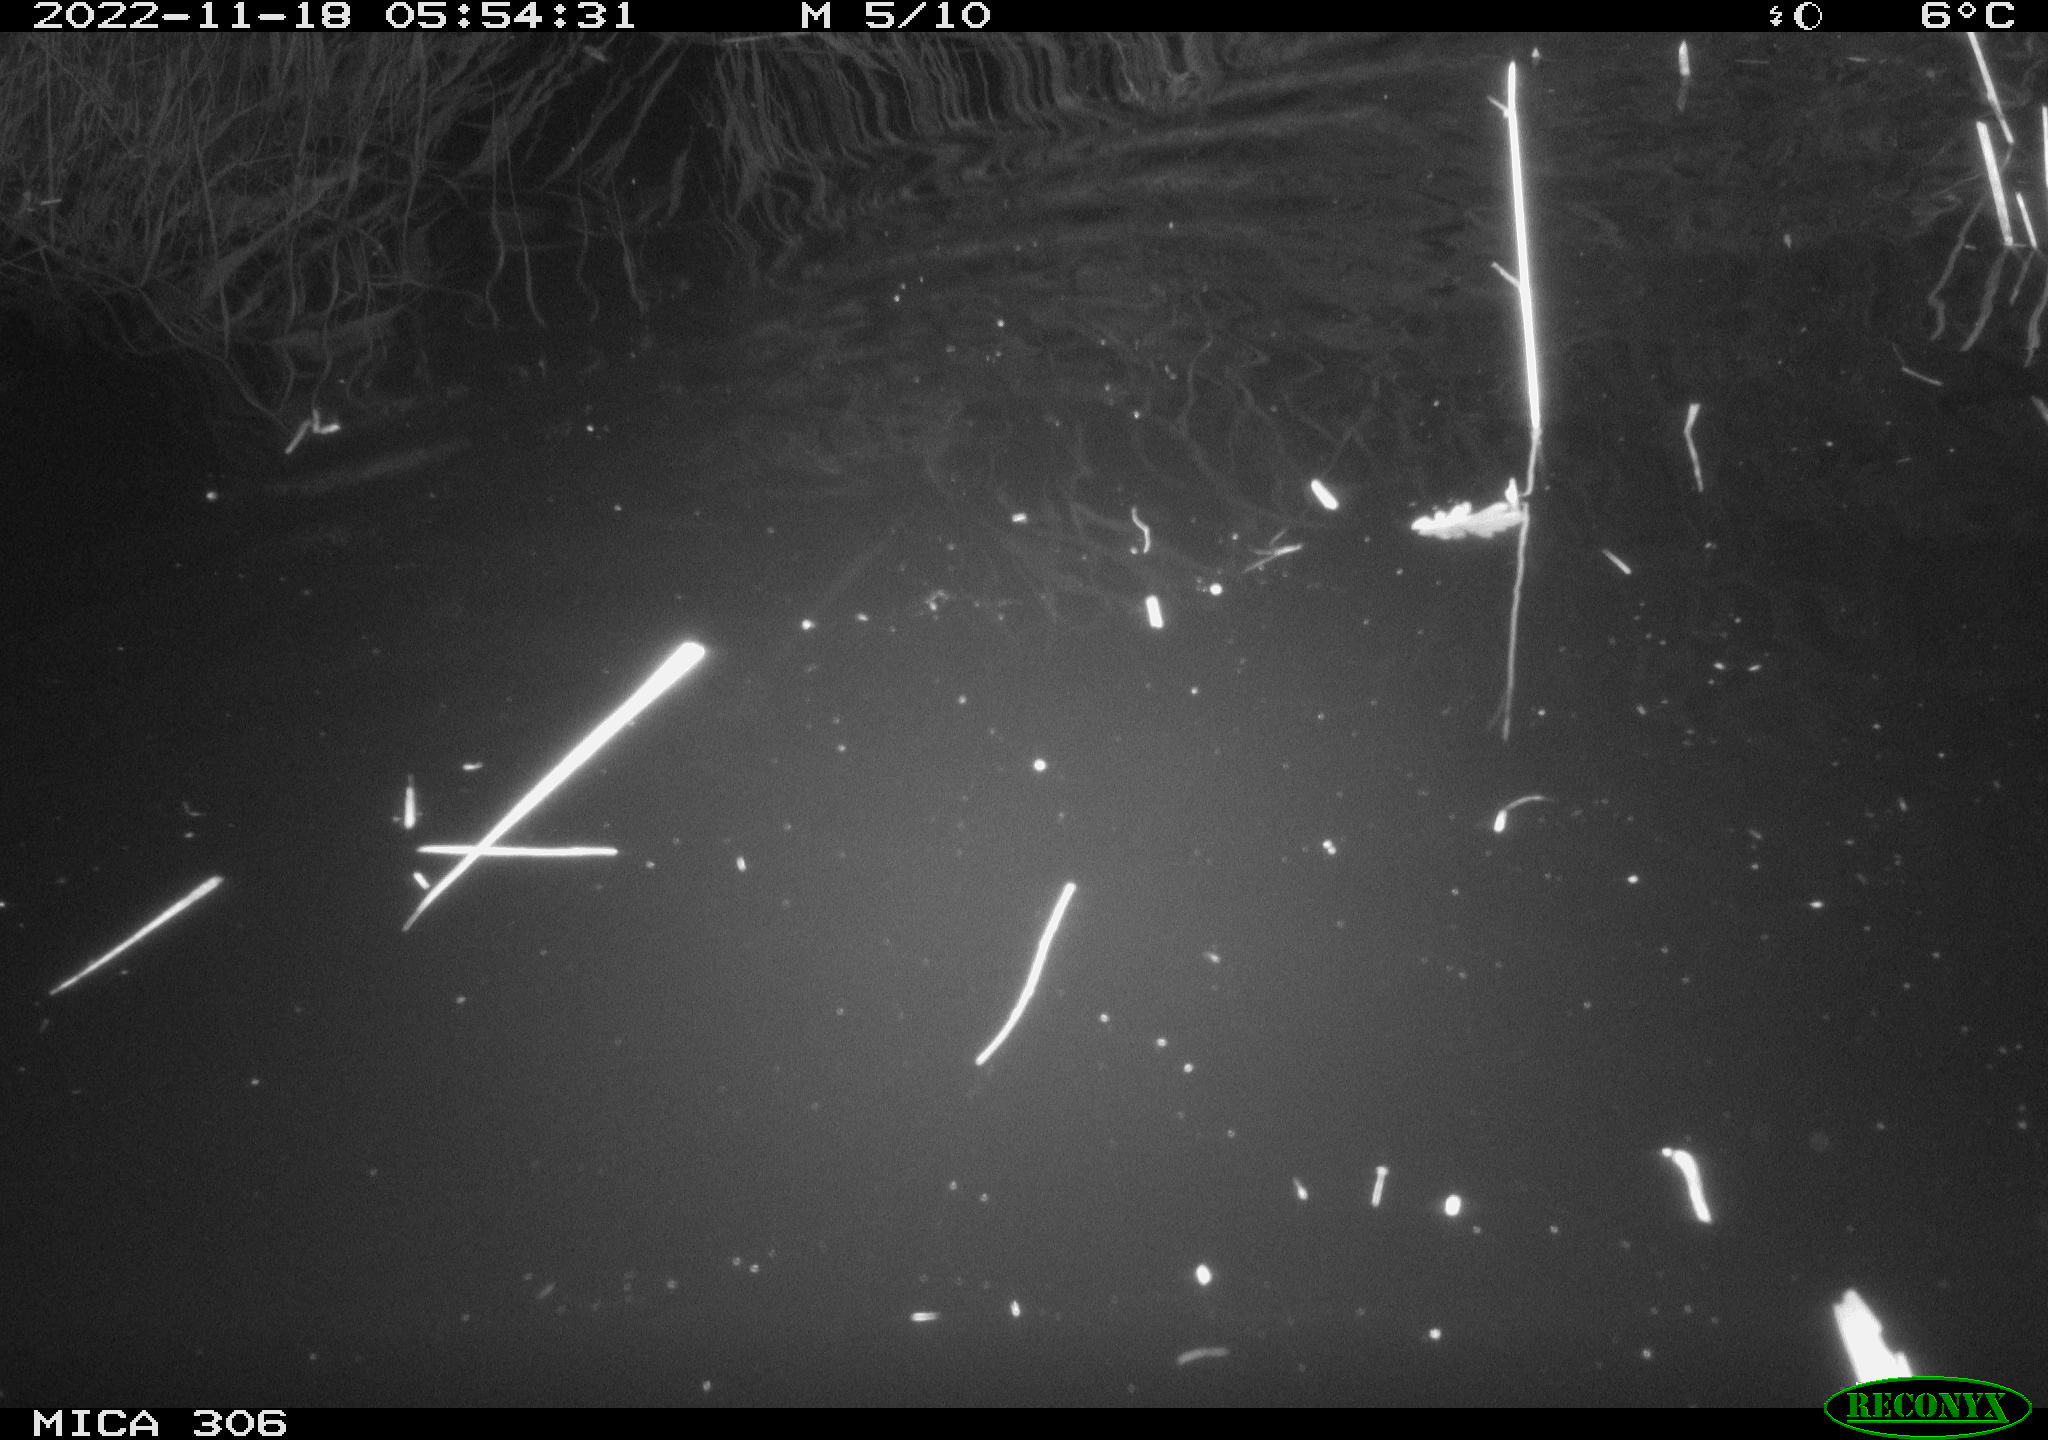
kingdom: Animalia
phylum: Chordata
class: Mammalia
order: Rodentia
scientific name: Rodentia
